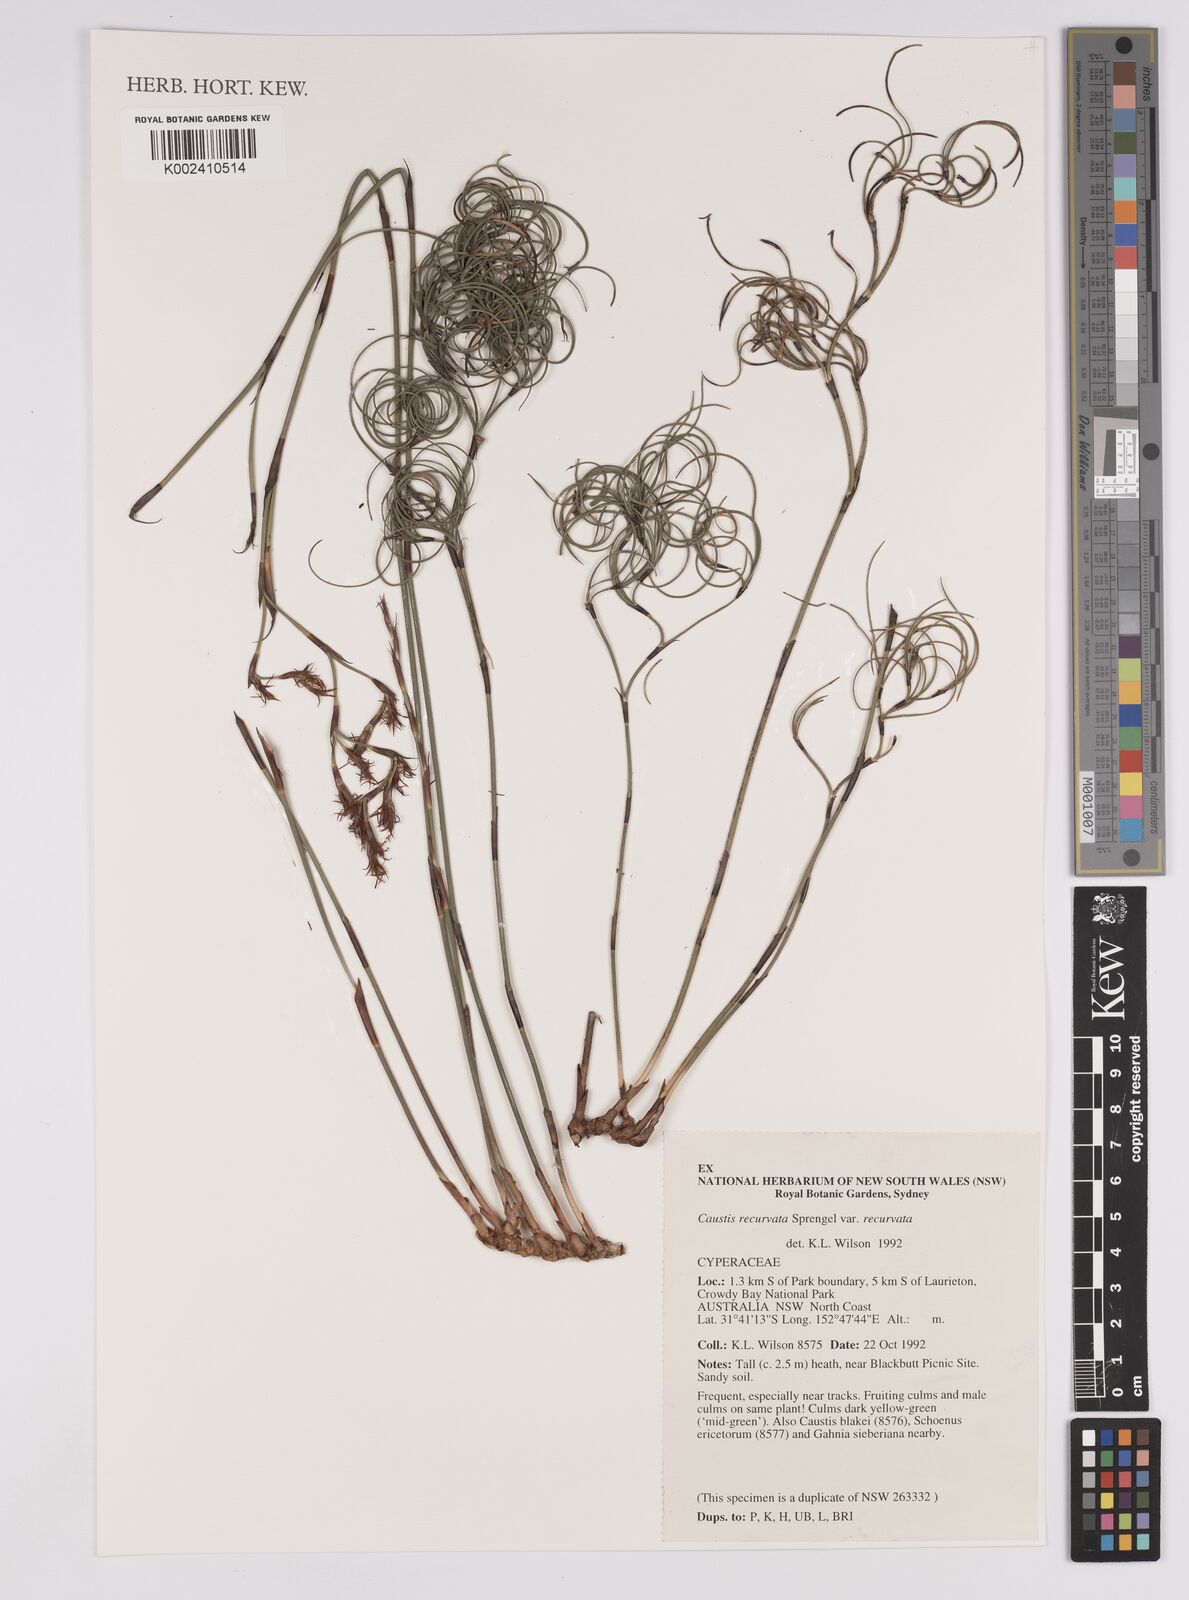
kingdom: Plantae
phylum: Tracheophyta
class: Liliopsida
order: Poales
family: Cyperaceae
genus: Caustis
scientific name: Caustis recurvata
